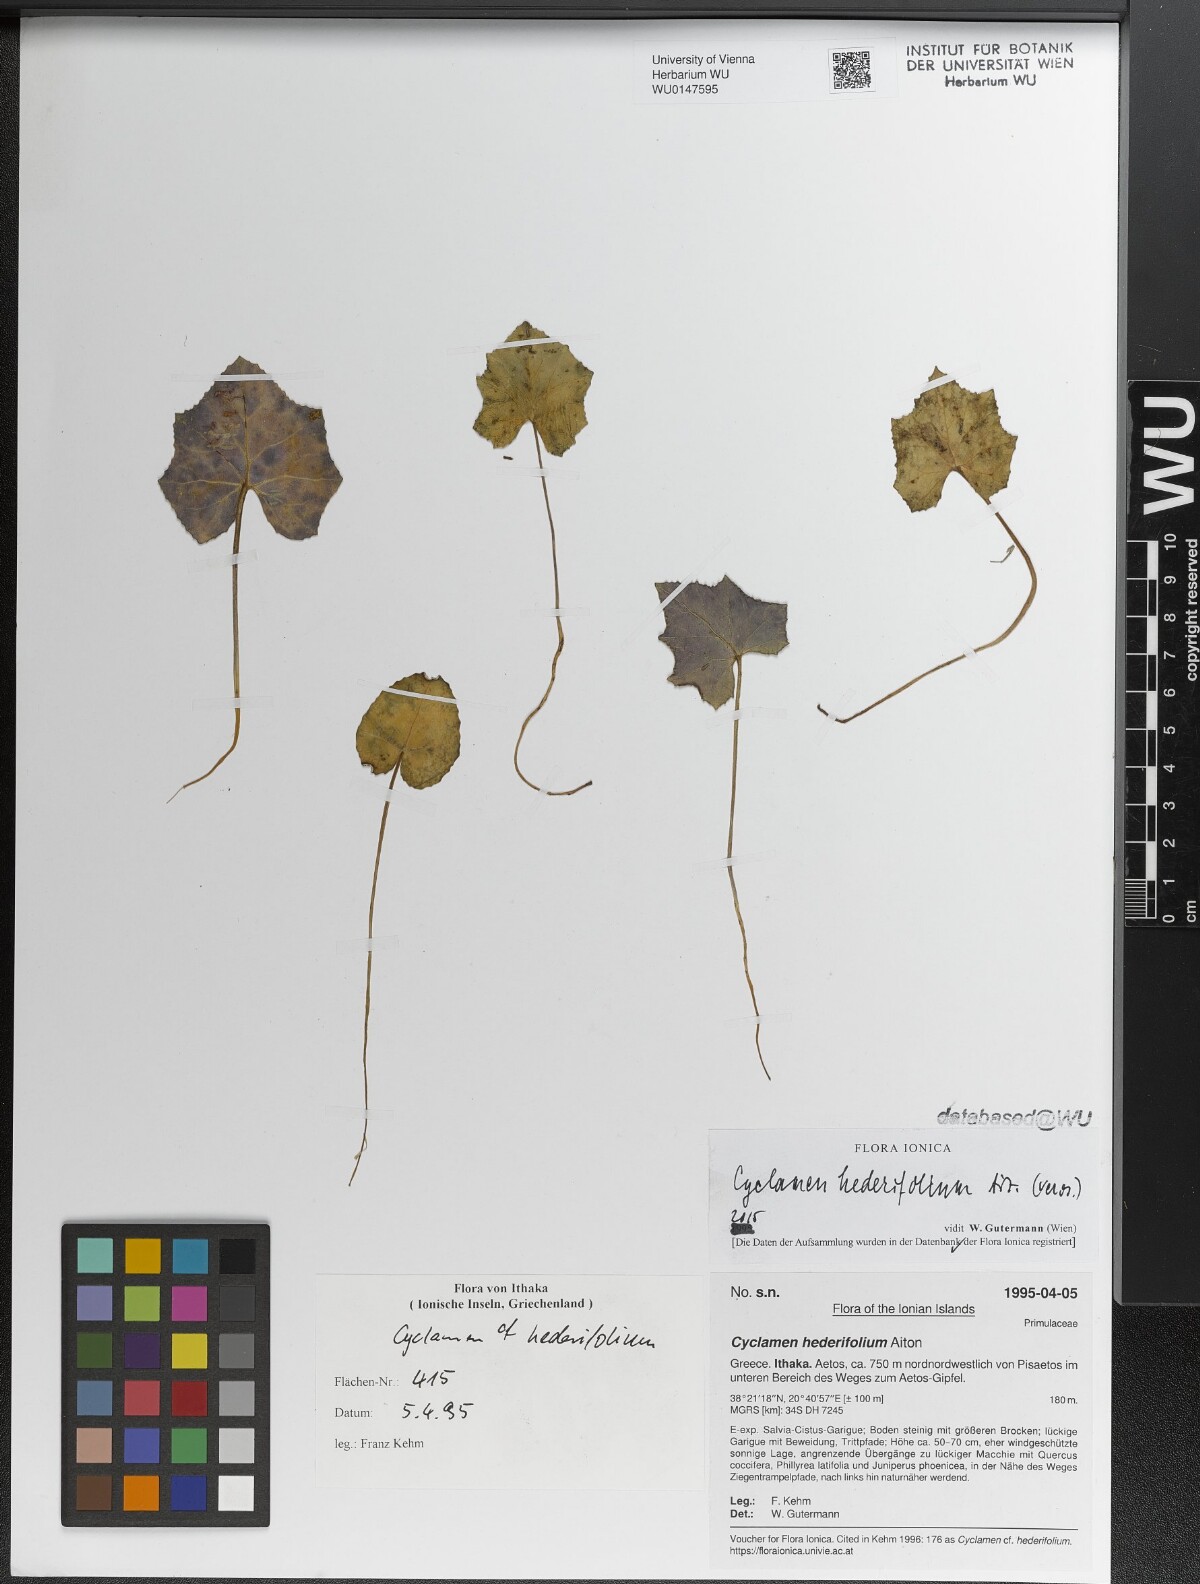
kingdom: Plantae
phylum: Tracheophyta
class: Magnoliopsida
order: Ericales
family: Primulaceae
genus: Cyclamen
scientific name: Cyclamen hederifolium
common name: Sowbread
